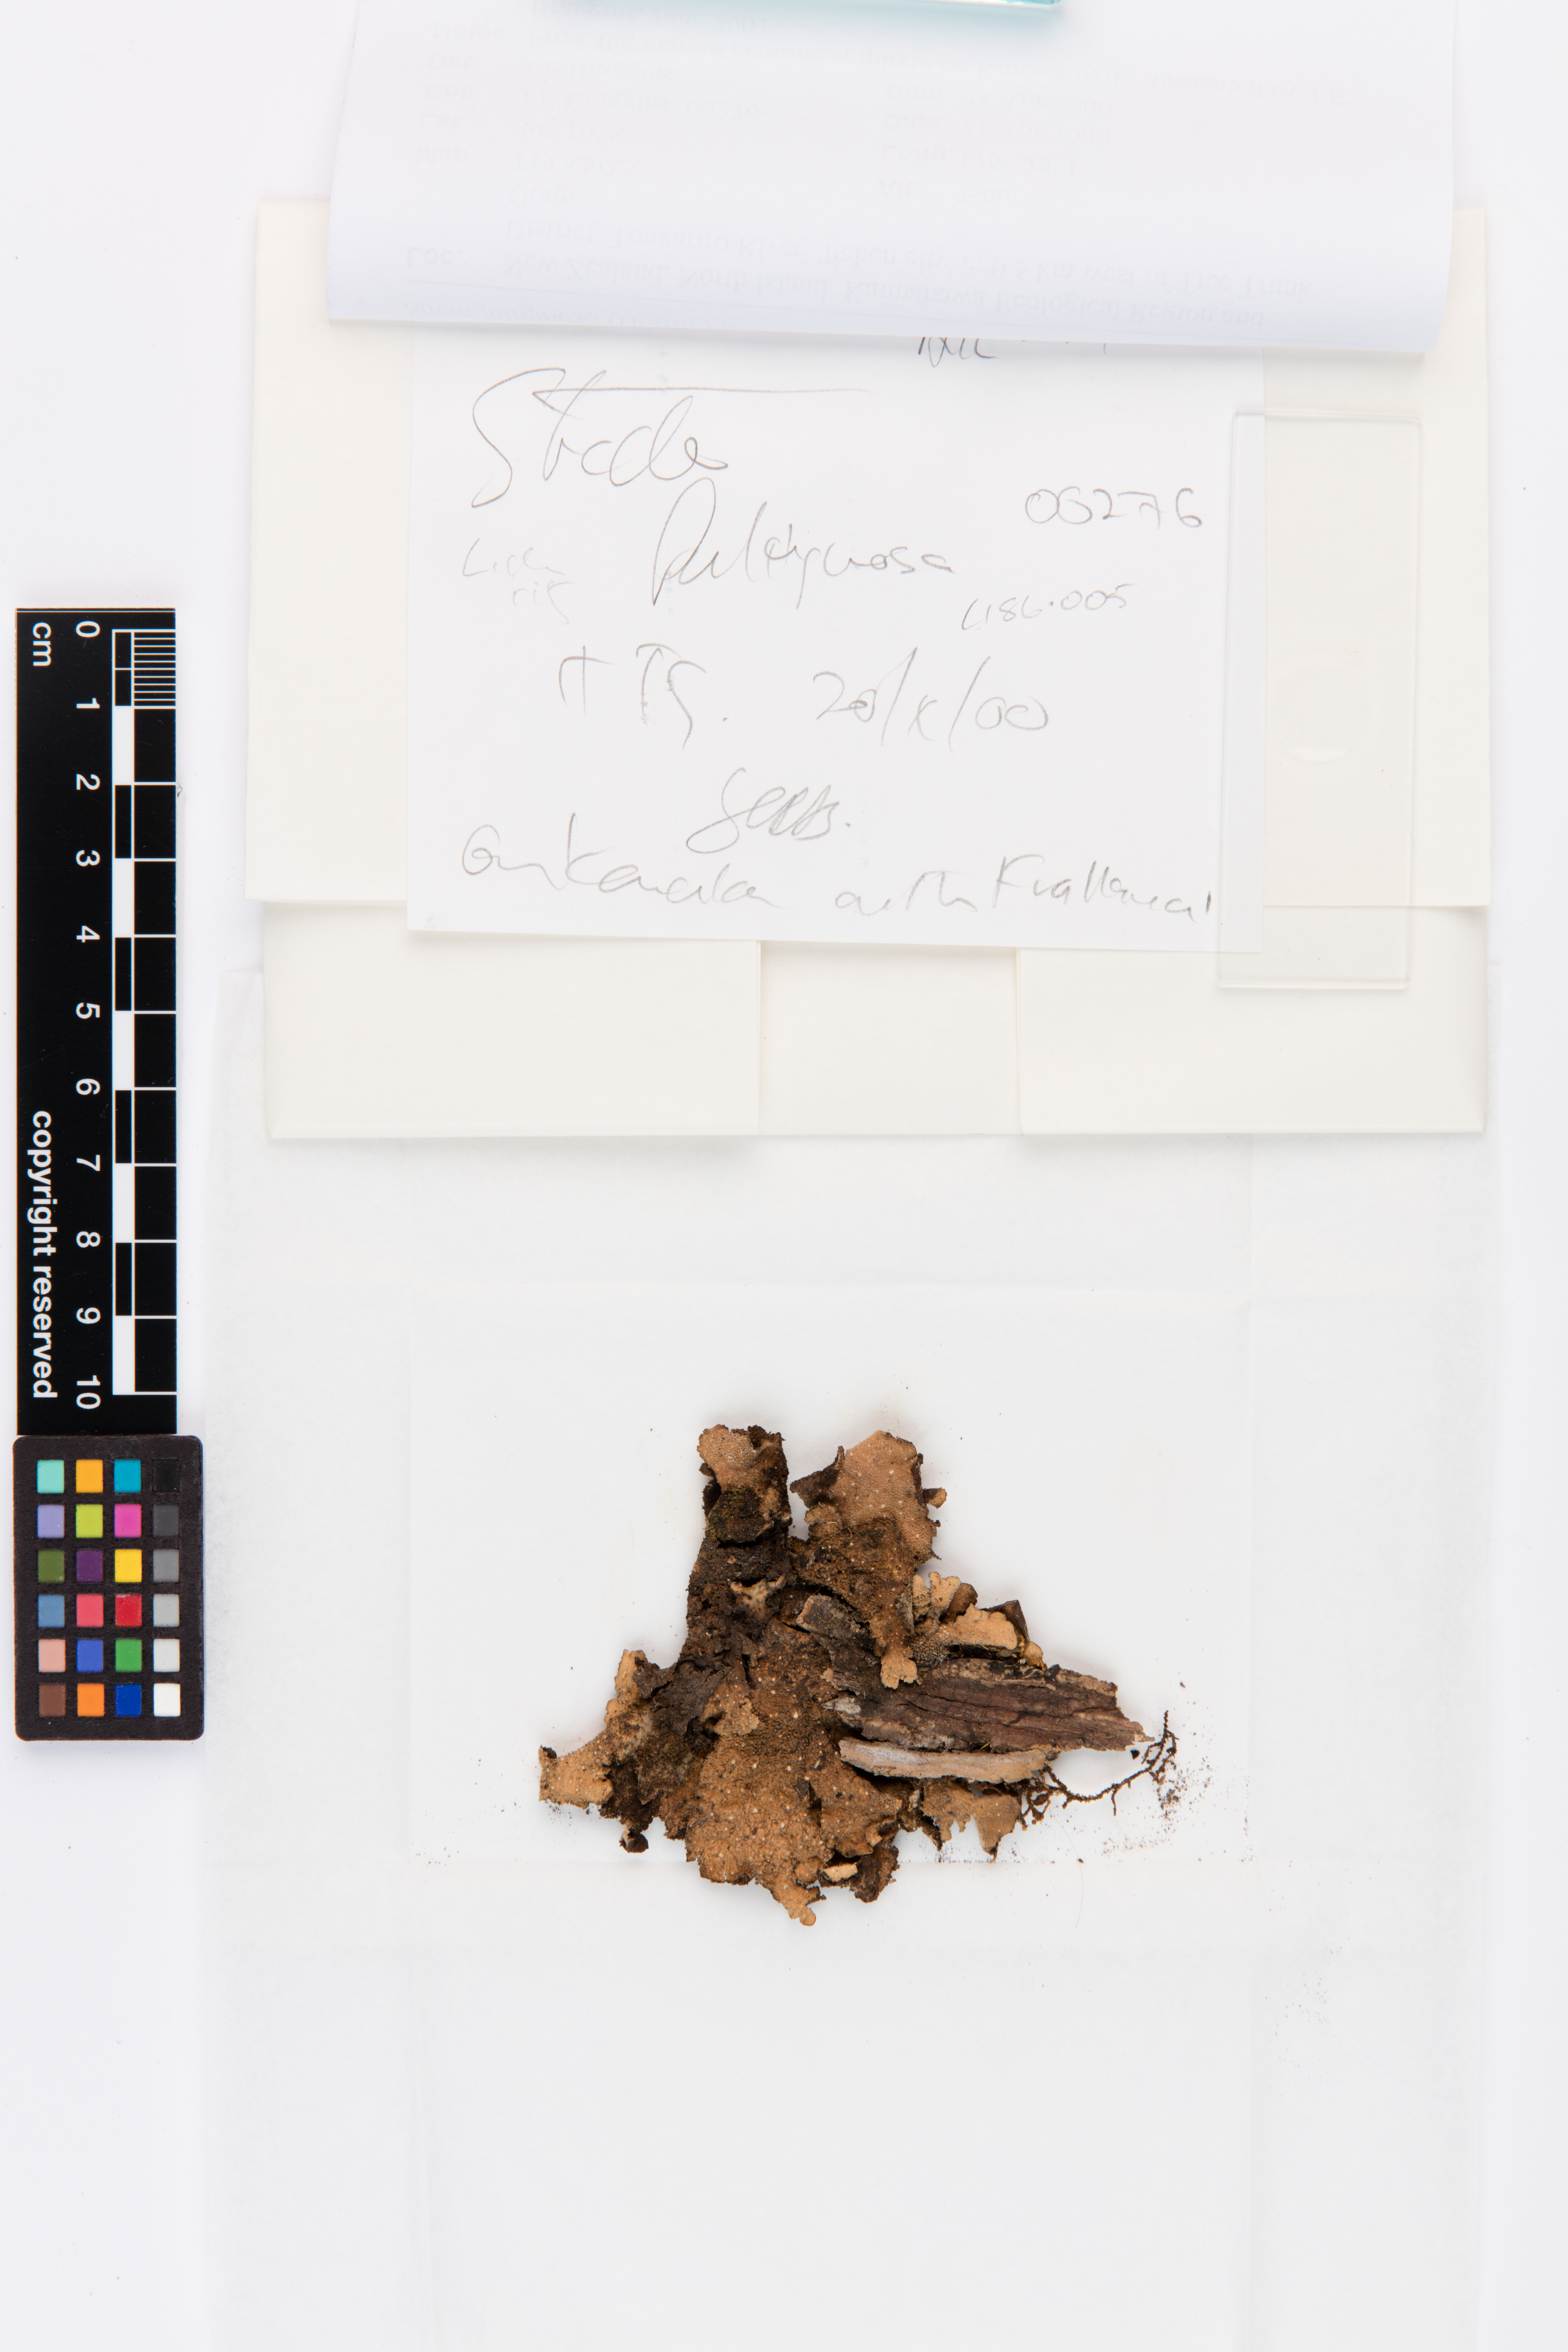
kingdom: Fungi
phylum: Ascomycota
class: Lecanoromycetes
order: Peltigerales
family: Lobariaceae
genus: Sticta
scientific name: Sticta fuliginosa
